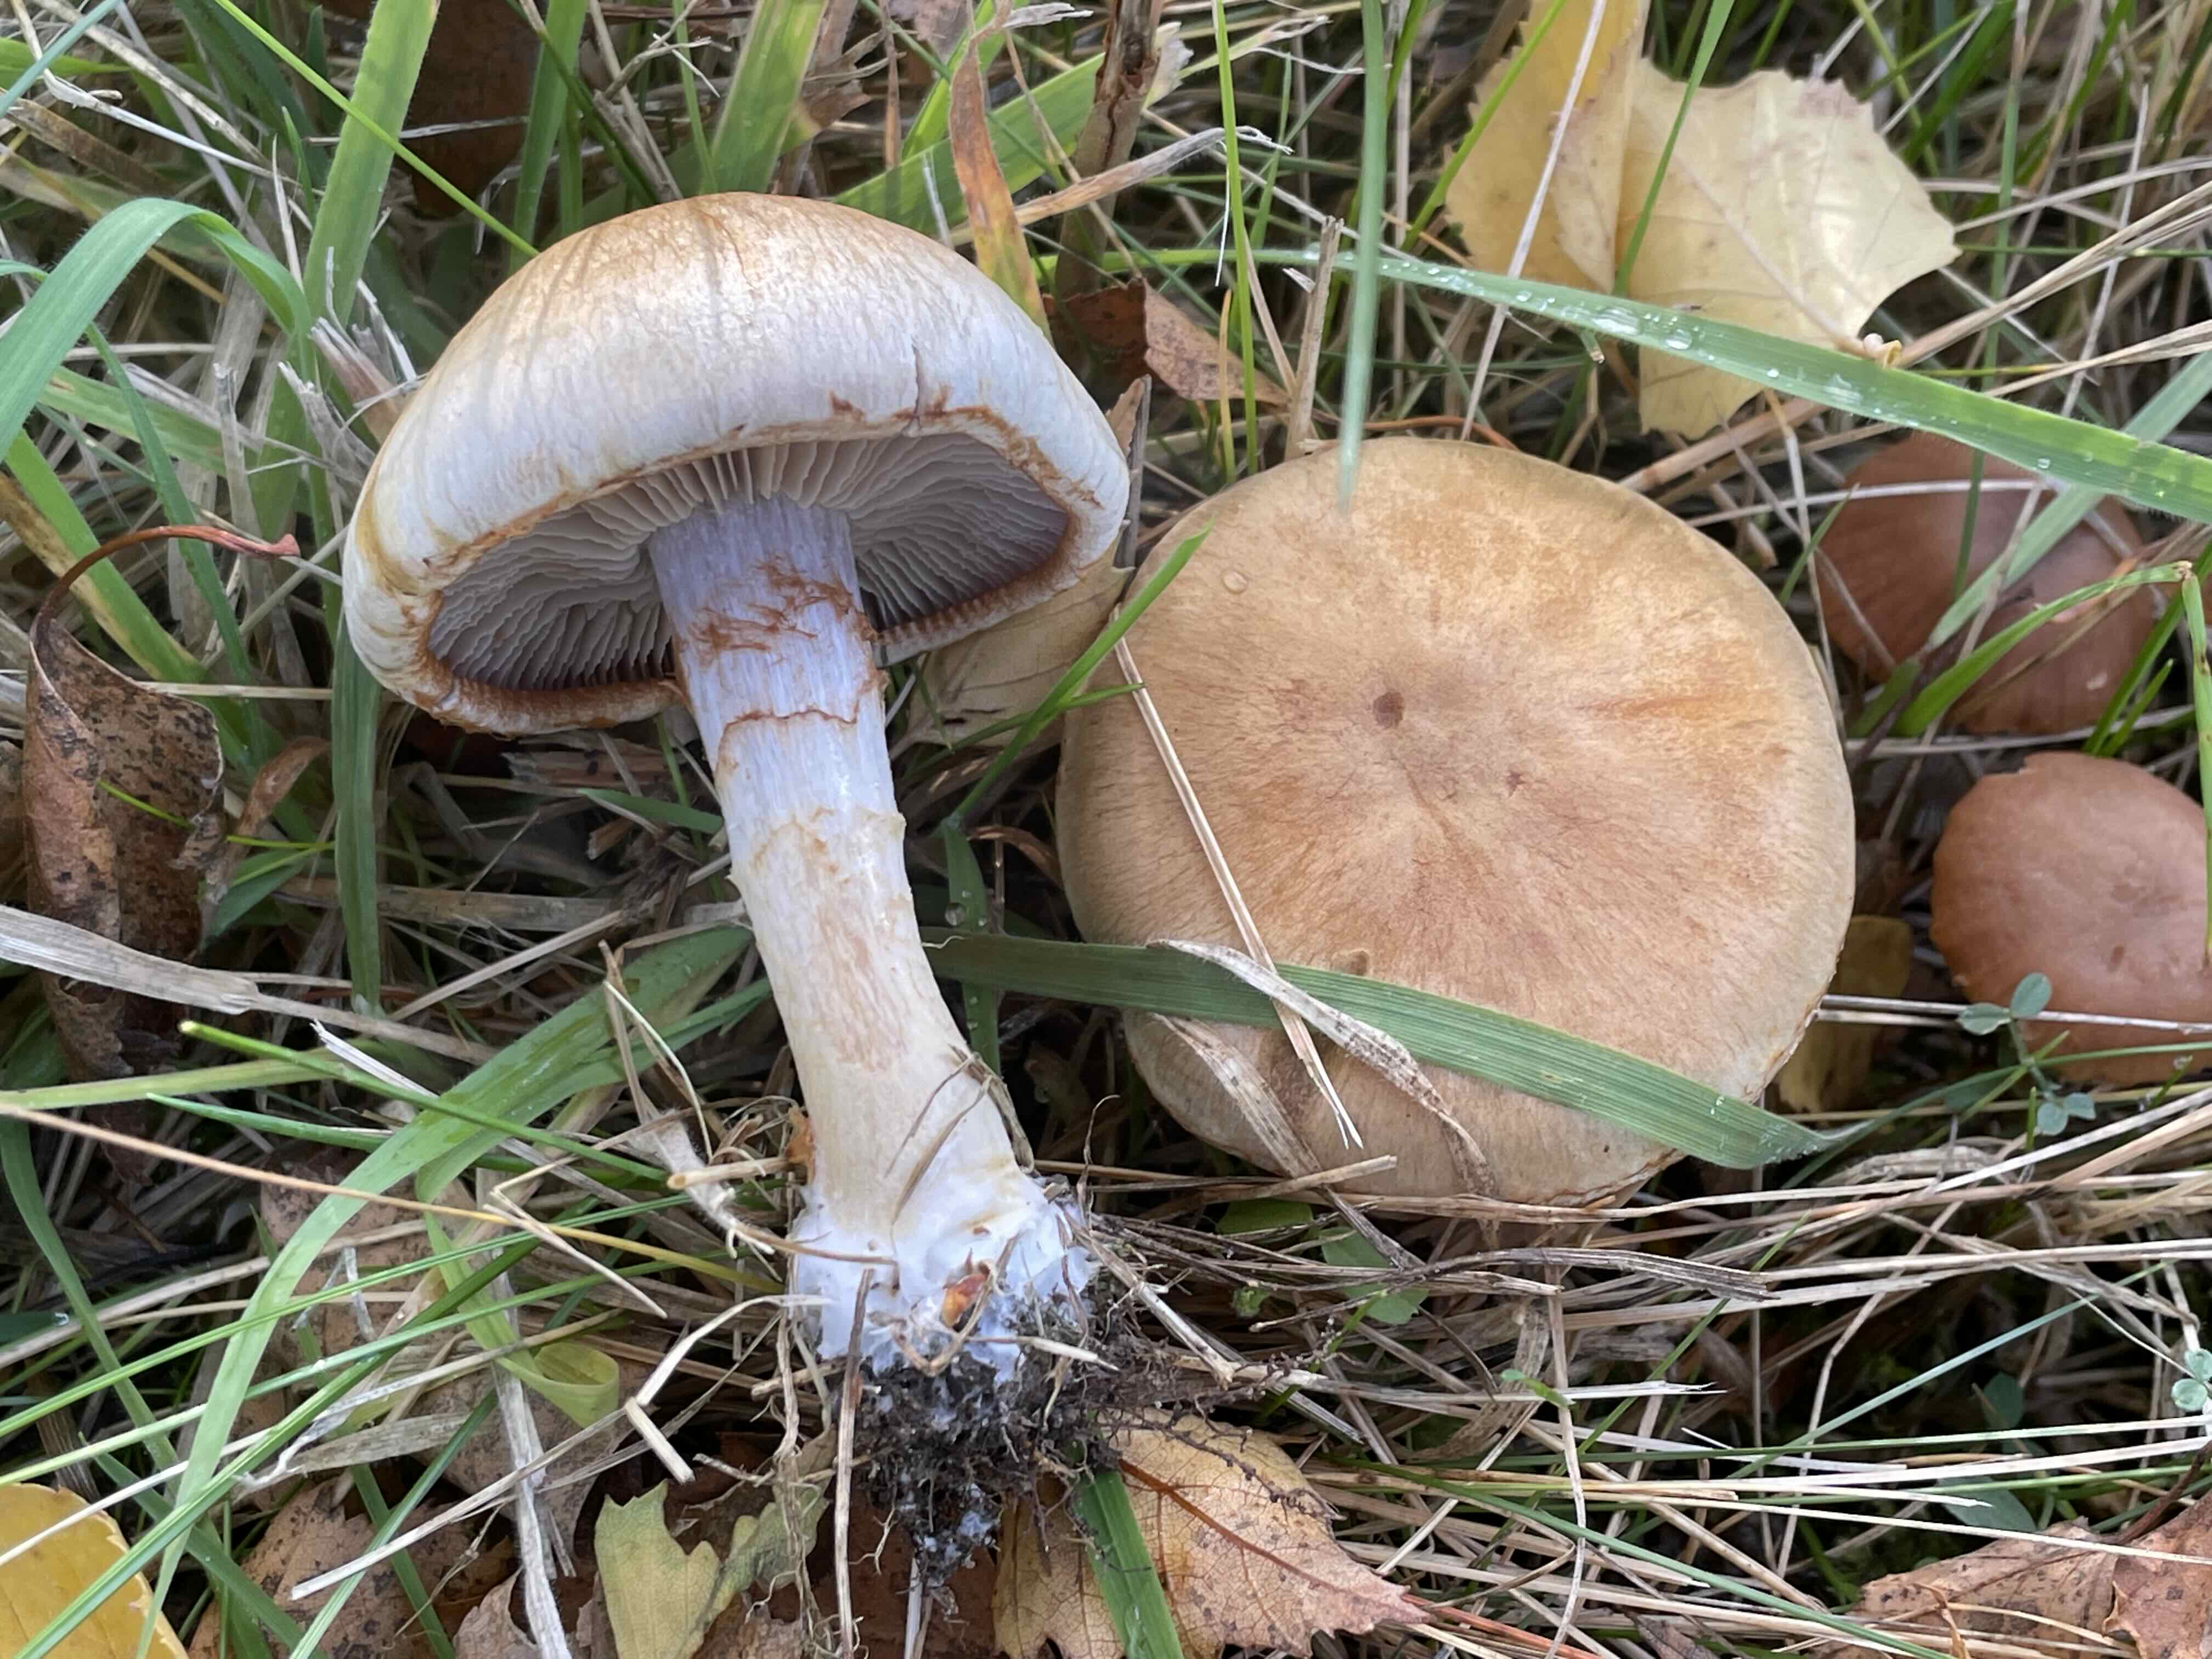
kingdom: Fungi
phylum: Basidiomycota
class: Agaricomycetes
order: Agaricales
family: Cortinariaceae
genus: Cortinarius
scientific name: Cortinarius
